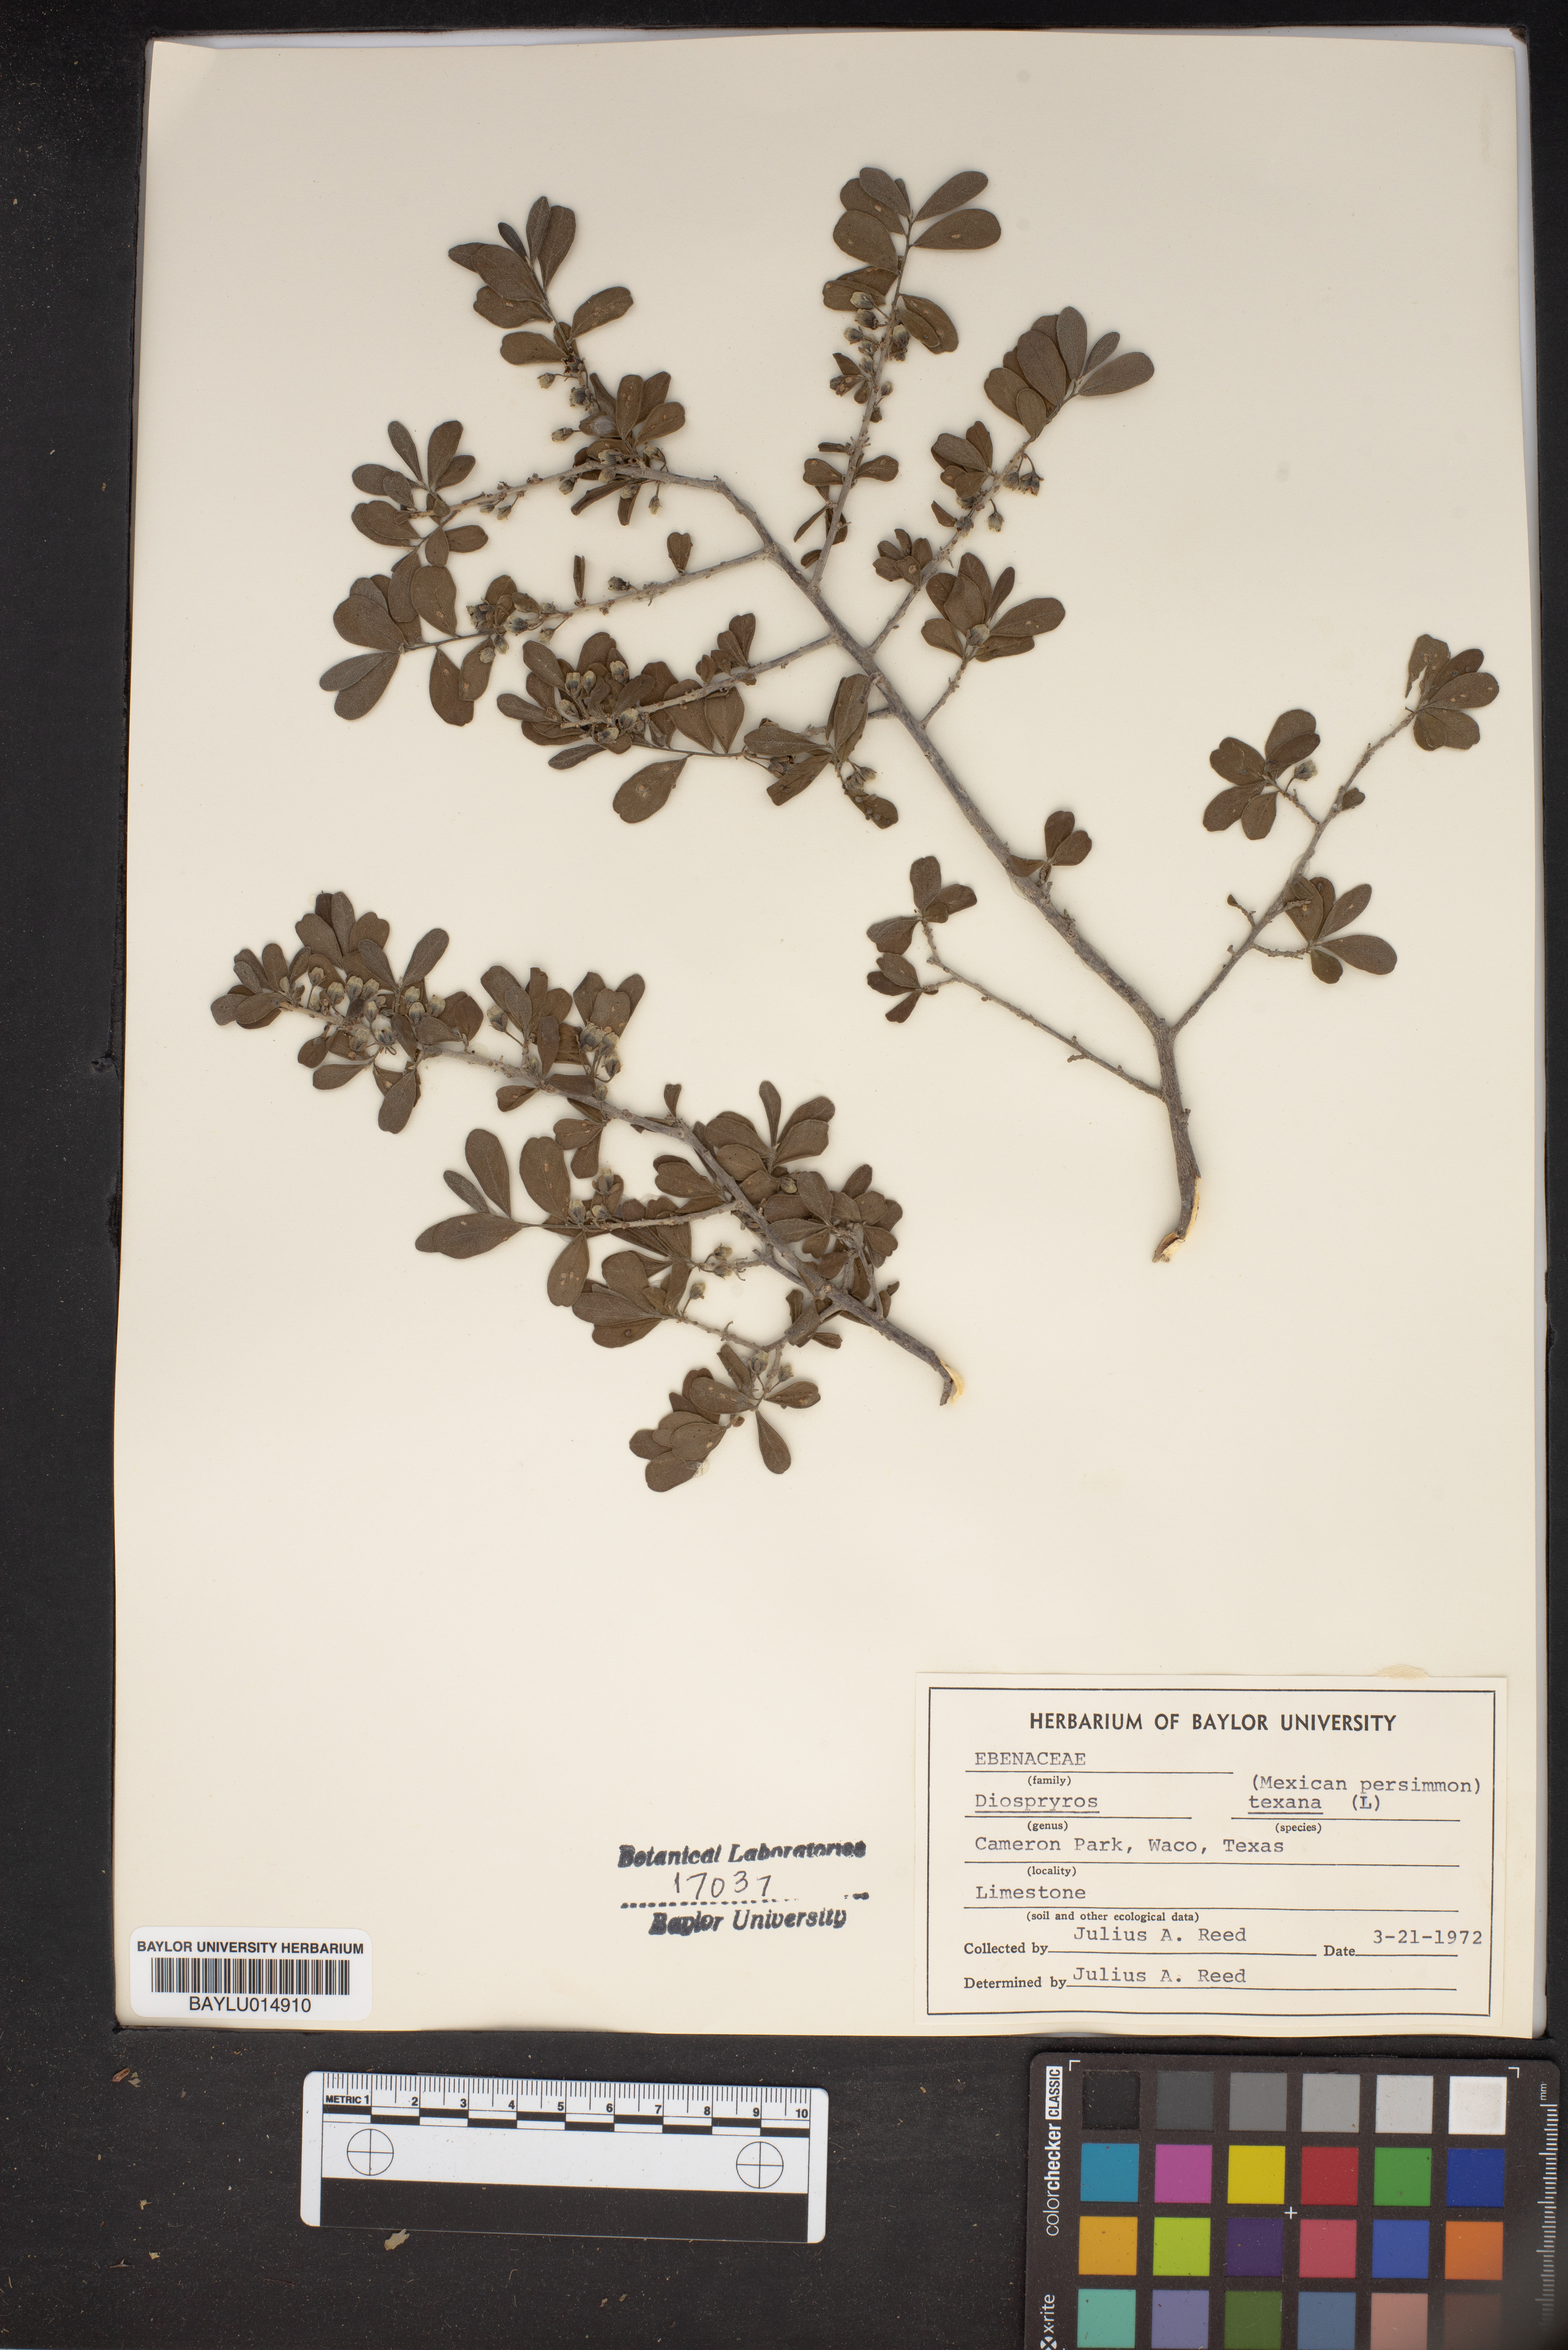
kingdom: Plantae
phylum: Tracheophyta
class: Magnoliopsida
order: Ericales
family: Ebenaceae
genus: Diospyros
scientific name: Diospyros texana
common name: Texas persimmon
